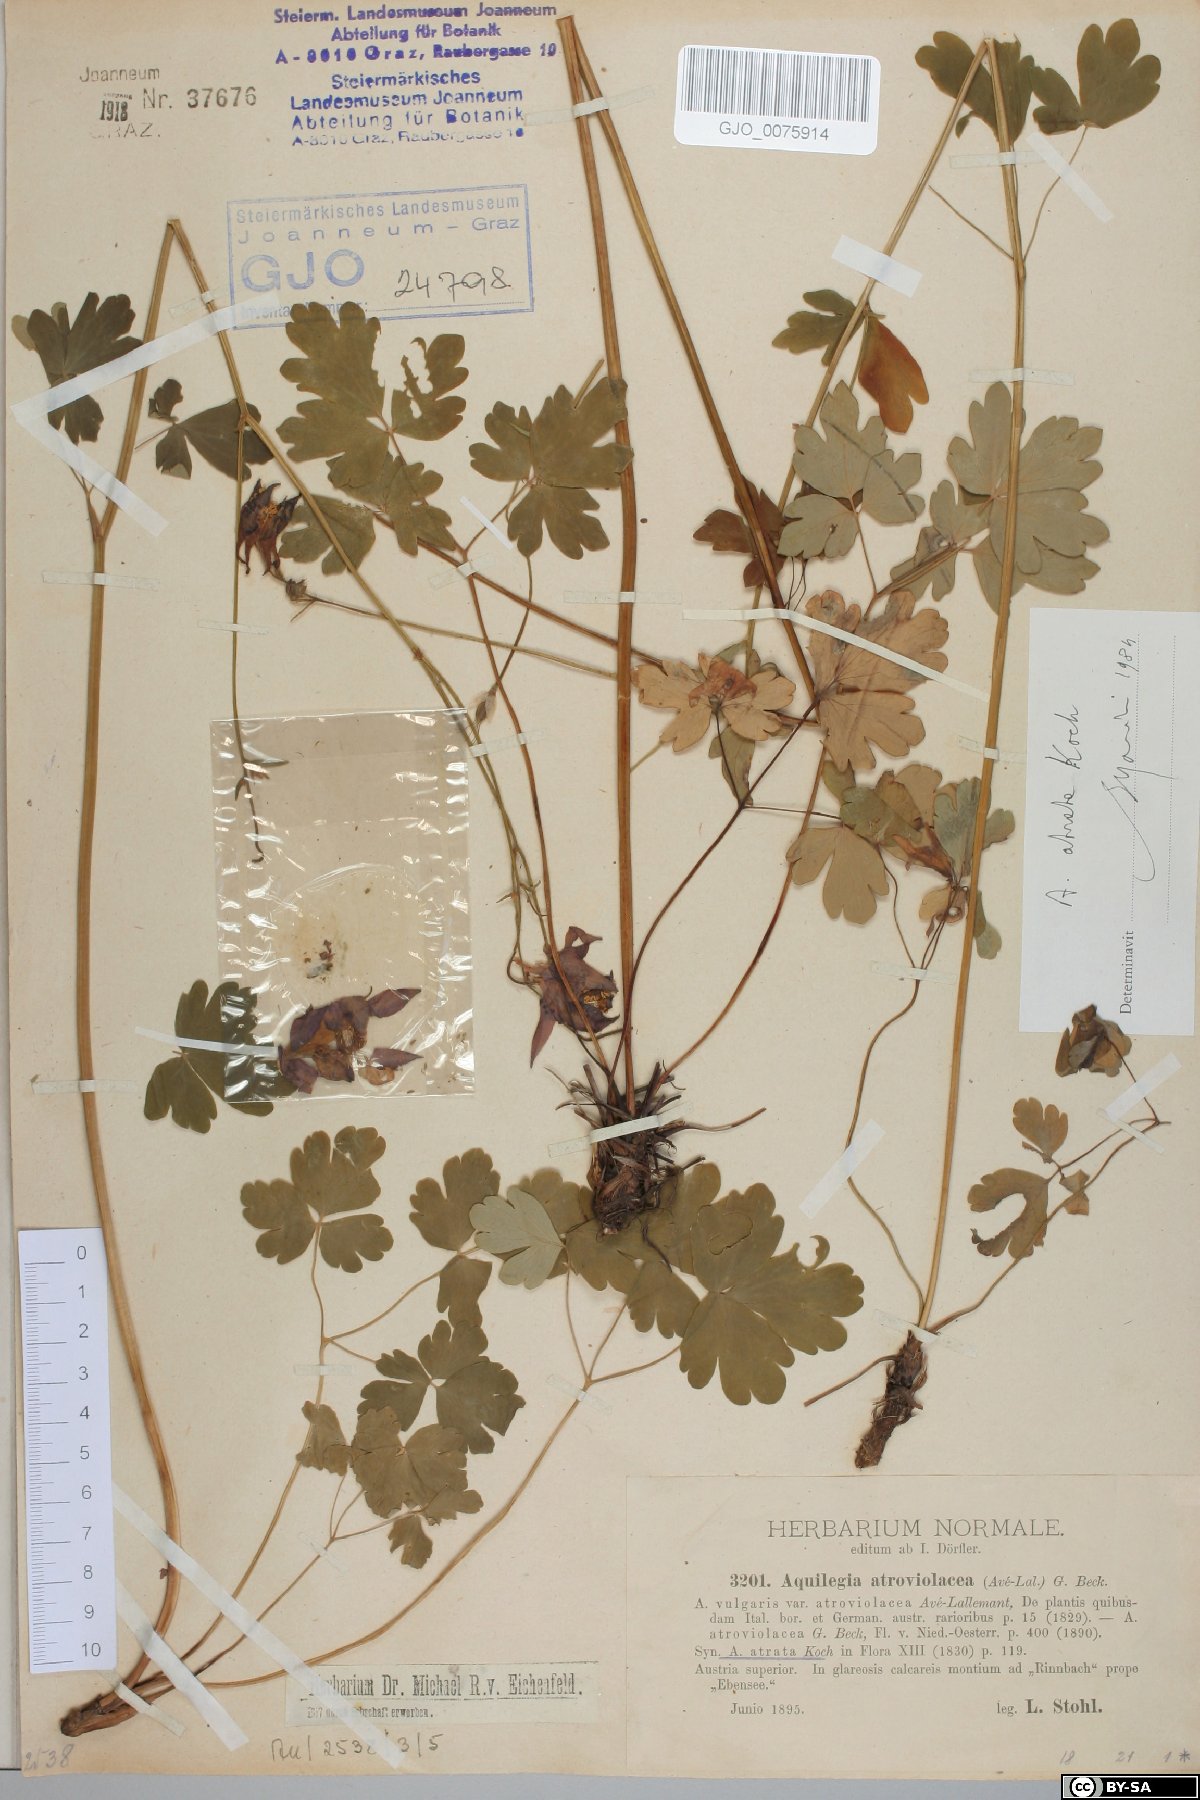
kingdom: Plantae
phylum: Tracheophyta
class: Magnoliopsida
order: Ranunculales
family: Ranunculaceae
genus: Aquilegia
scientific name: Aquilegia atrata
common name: Dark columbine
